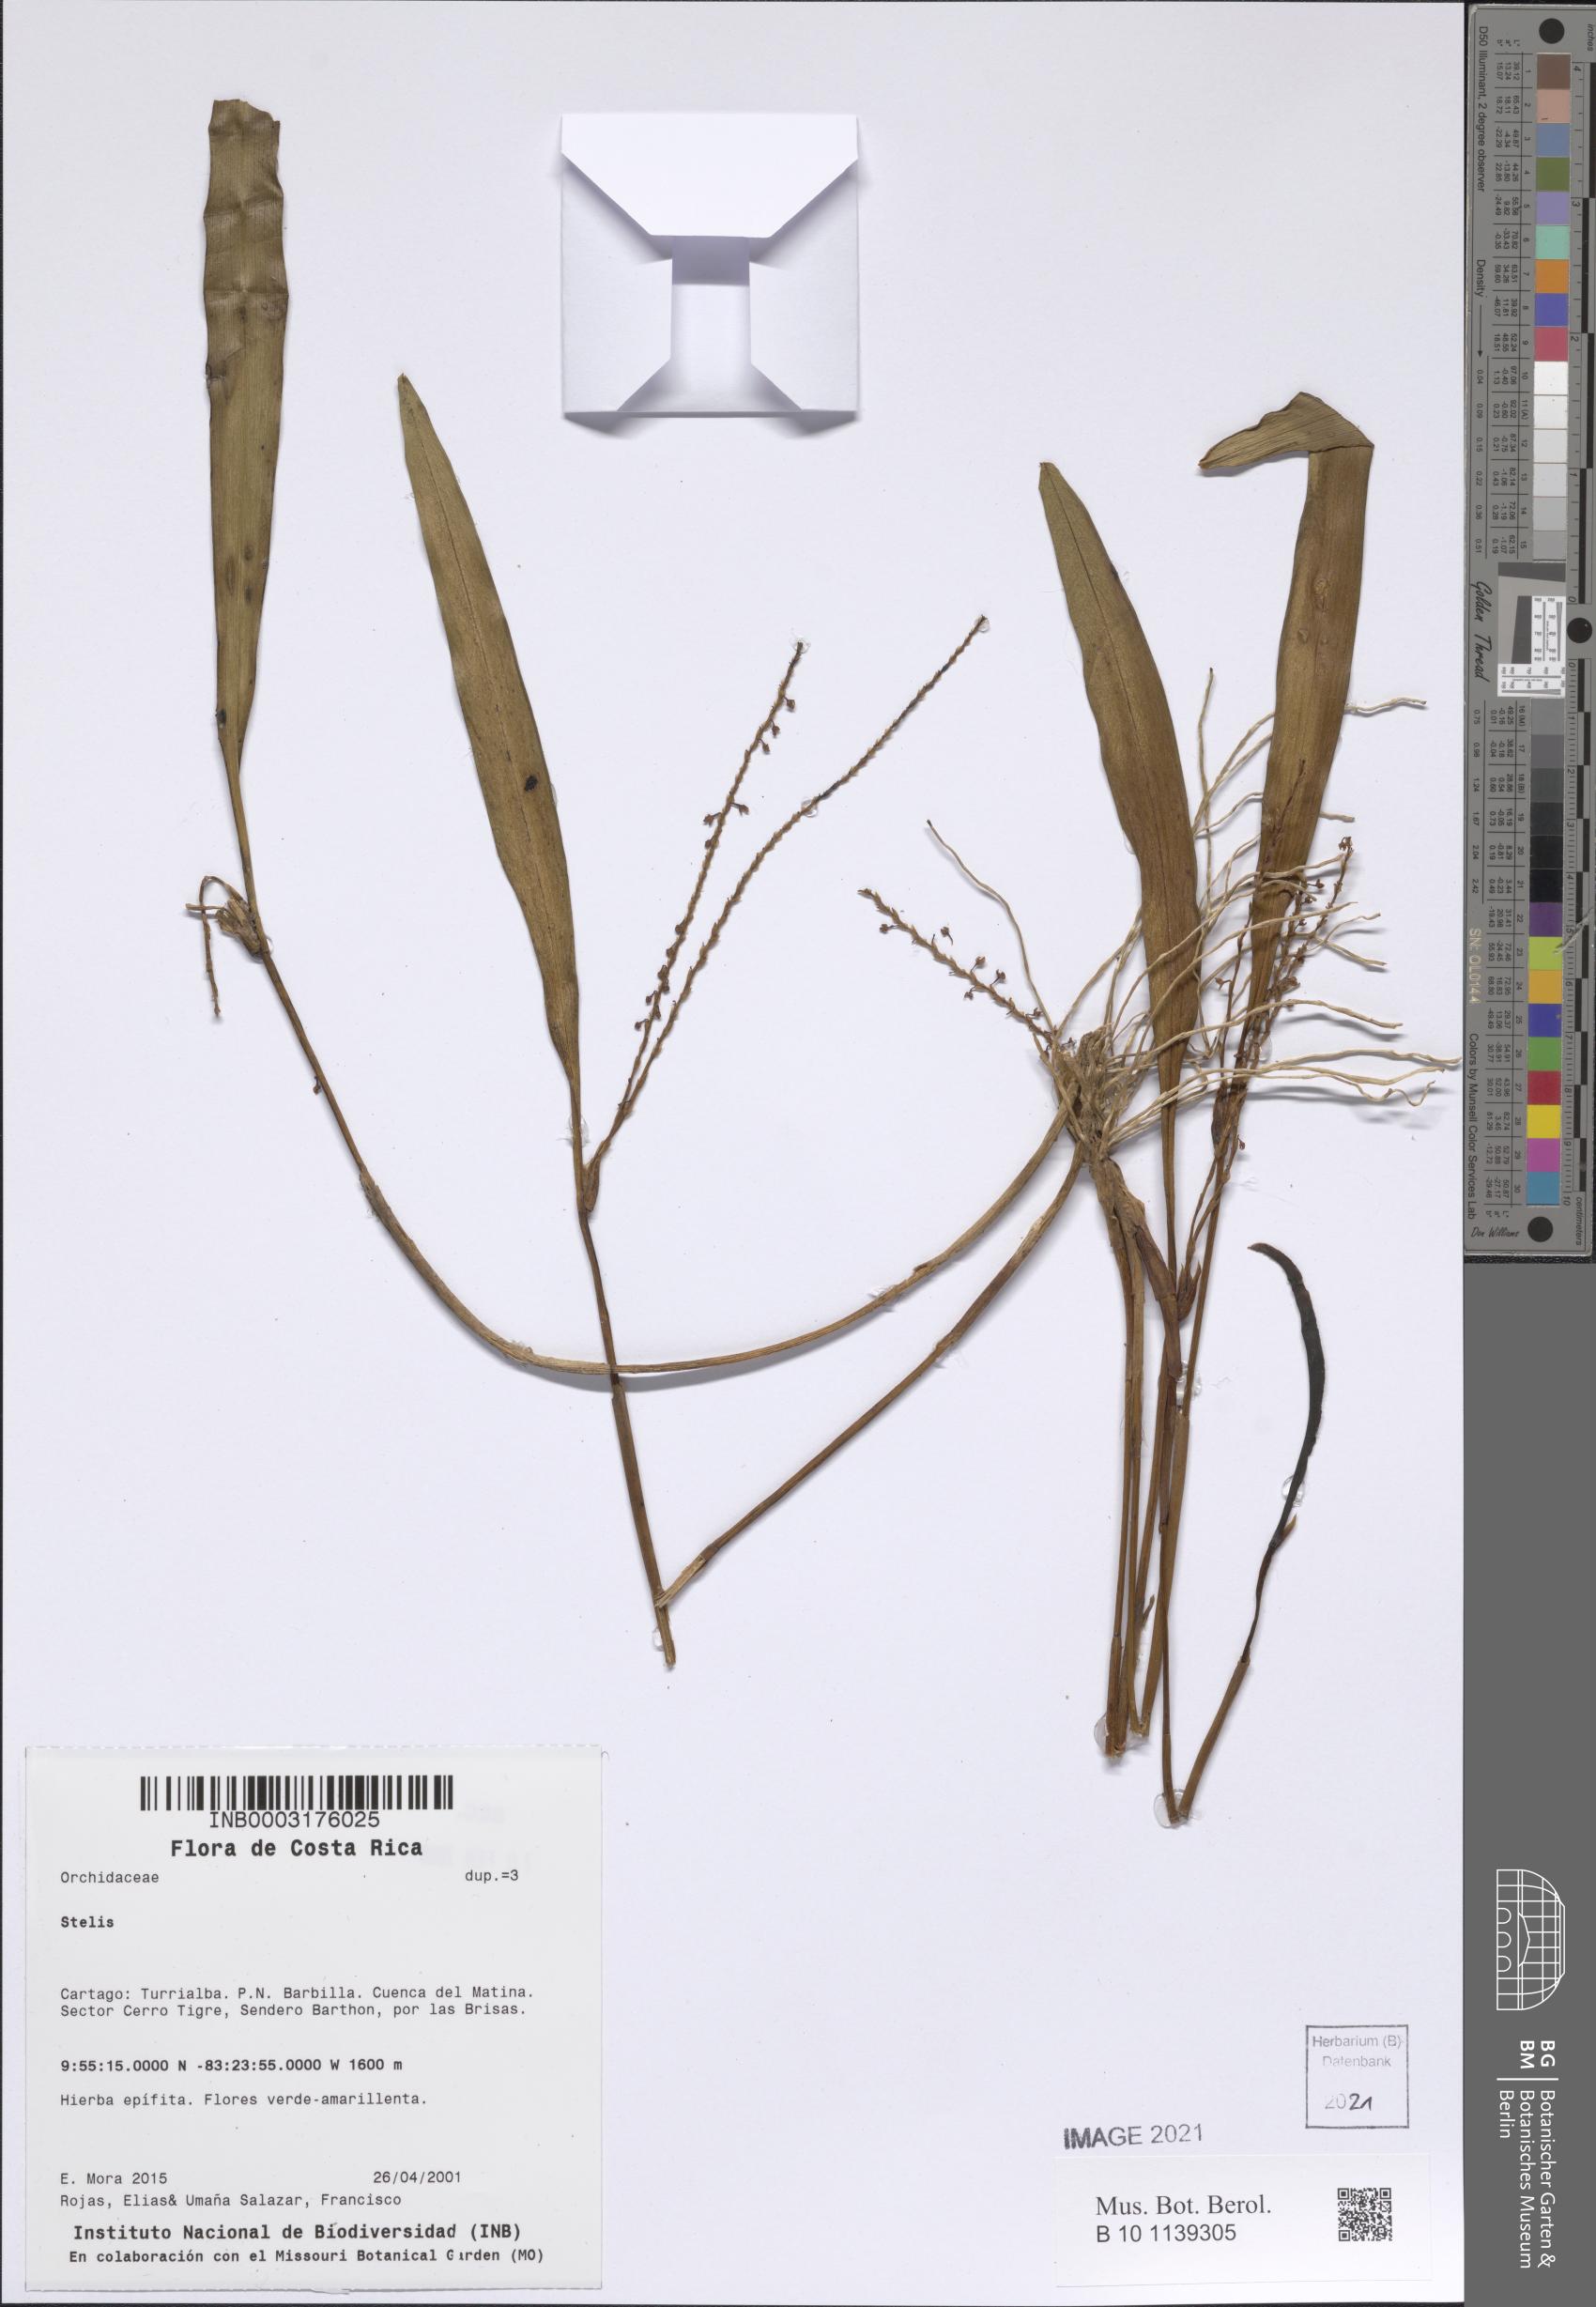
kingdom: Plantae
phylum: Tracheophyta
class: Liliopsida
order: Asparagales
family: Orchidaceae
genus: Stelis
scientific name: Stelis
